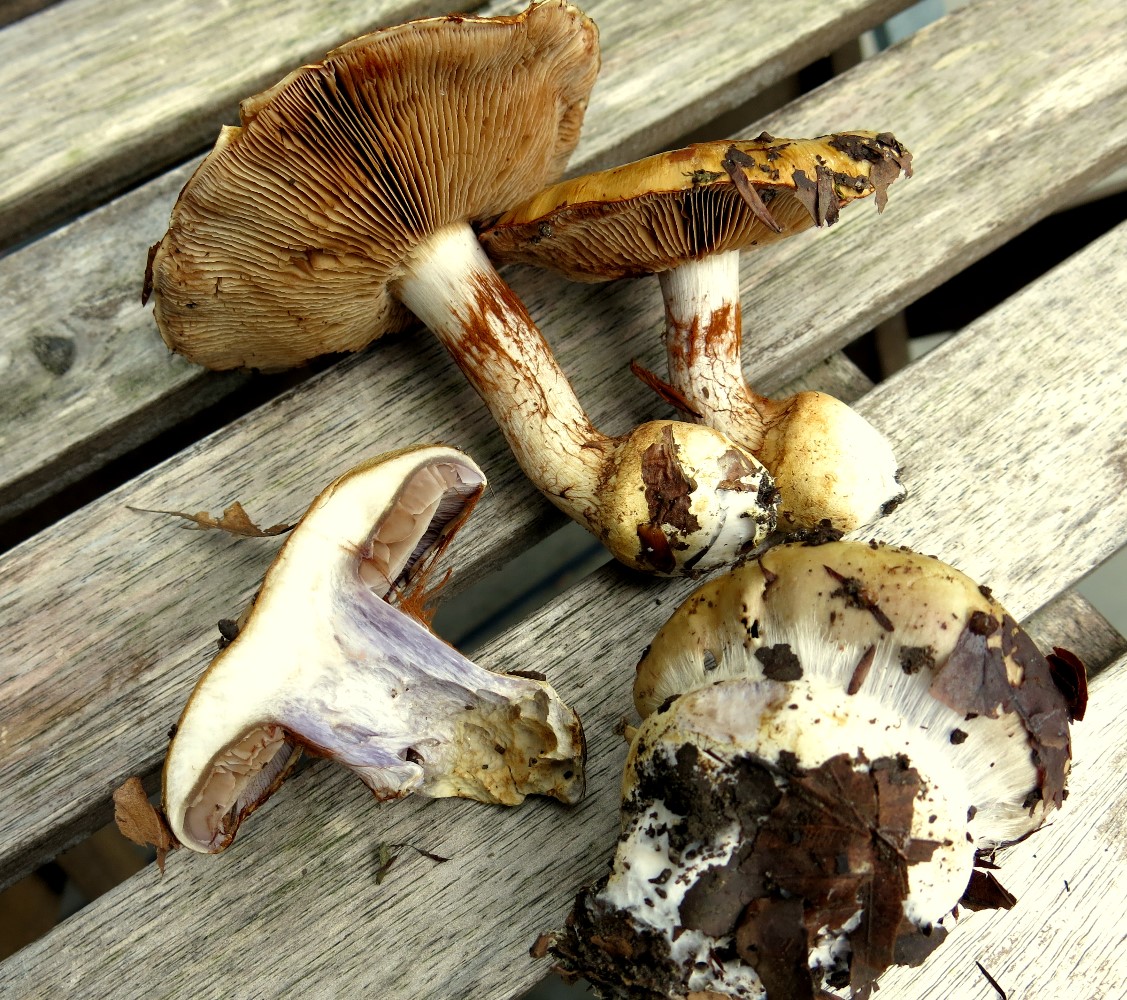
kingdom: Fungi
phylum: Basidiomycota
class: Agaricomycetes
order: Agaricales
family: Cortinariaceae
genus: Cortinarius
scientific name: Cortinarius anserinus
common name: bøge-slørhat
